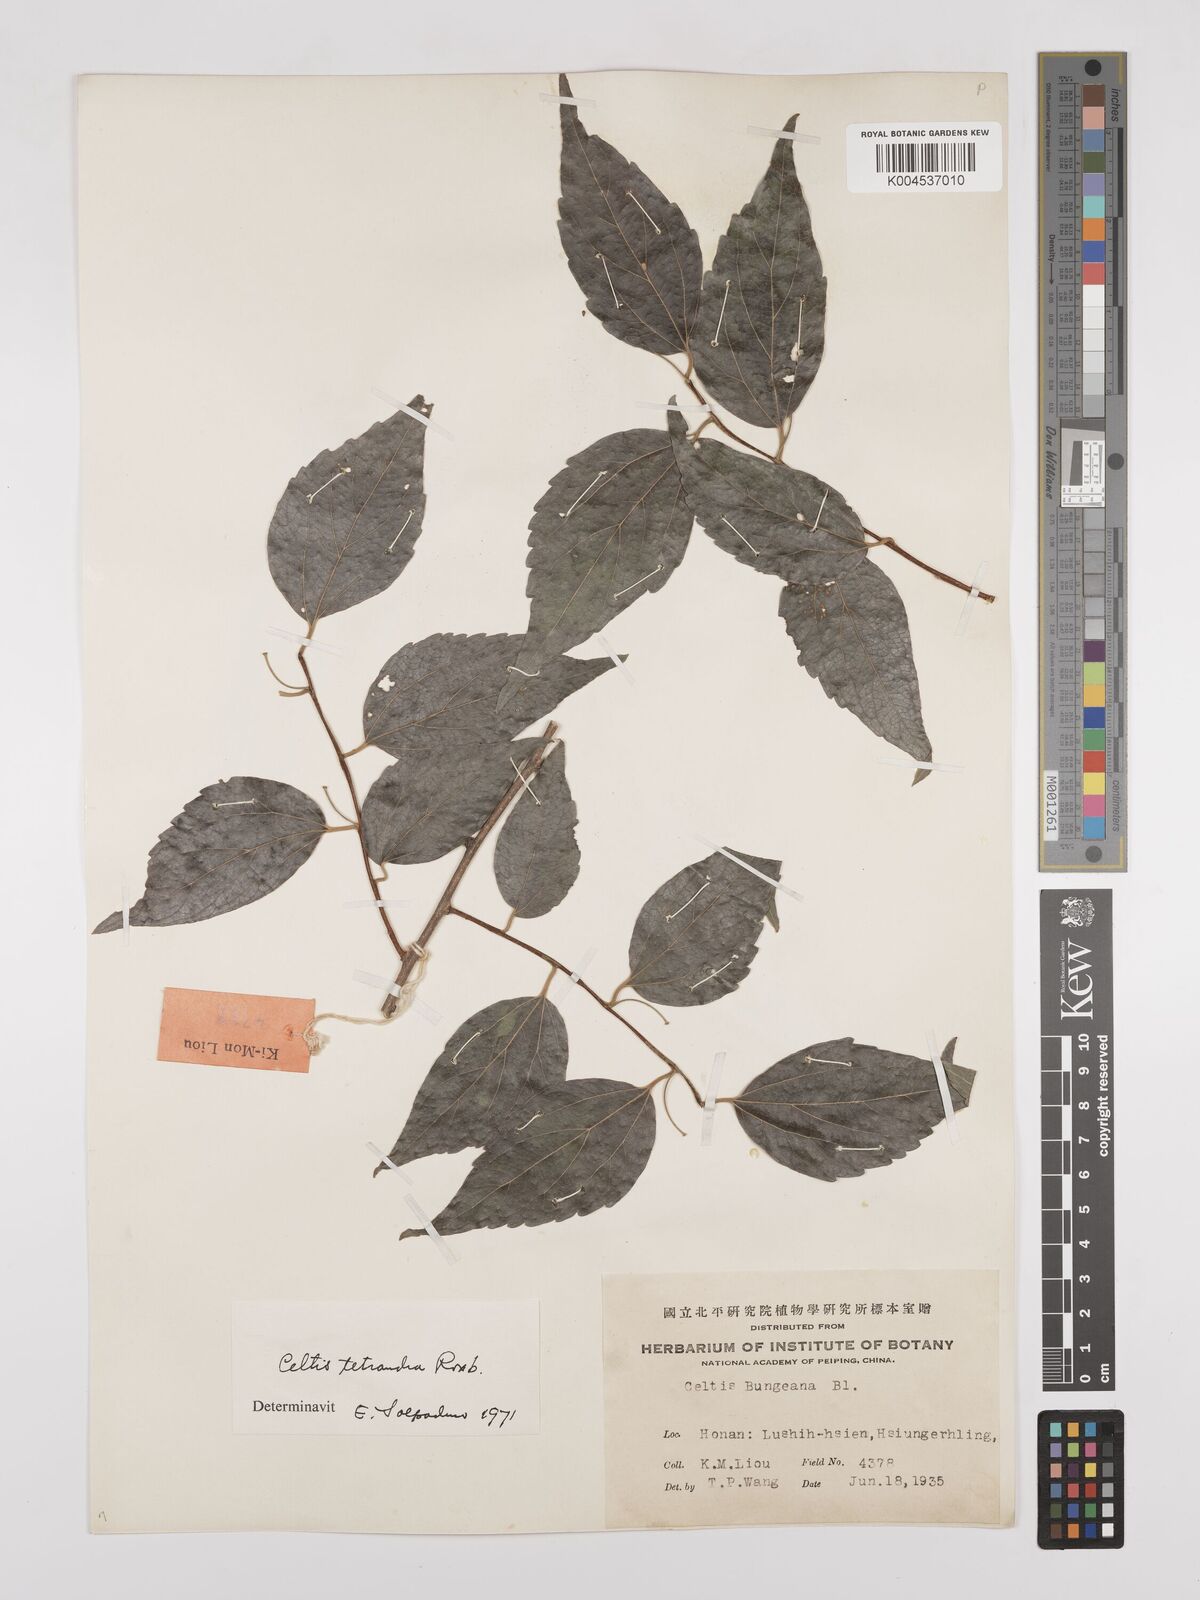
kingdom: Plantae
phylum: Tracheophyta
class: Magnoliopsida
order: Rosales
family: Cannabaceae
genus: Celtis
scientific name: Celtis tetrandra
